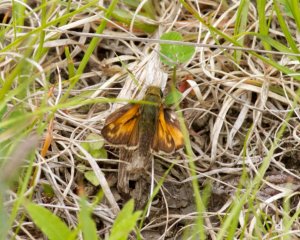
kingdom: Animalia
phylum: Arthropoda
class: Insecta
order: Lepidoptera
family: Hesperiidae
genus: Hesperia
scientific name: Hesperia sassacus
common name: Sassacus Skipper
